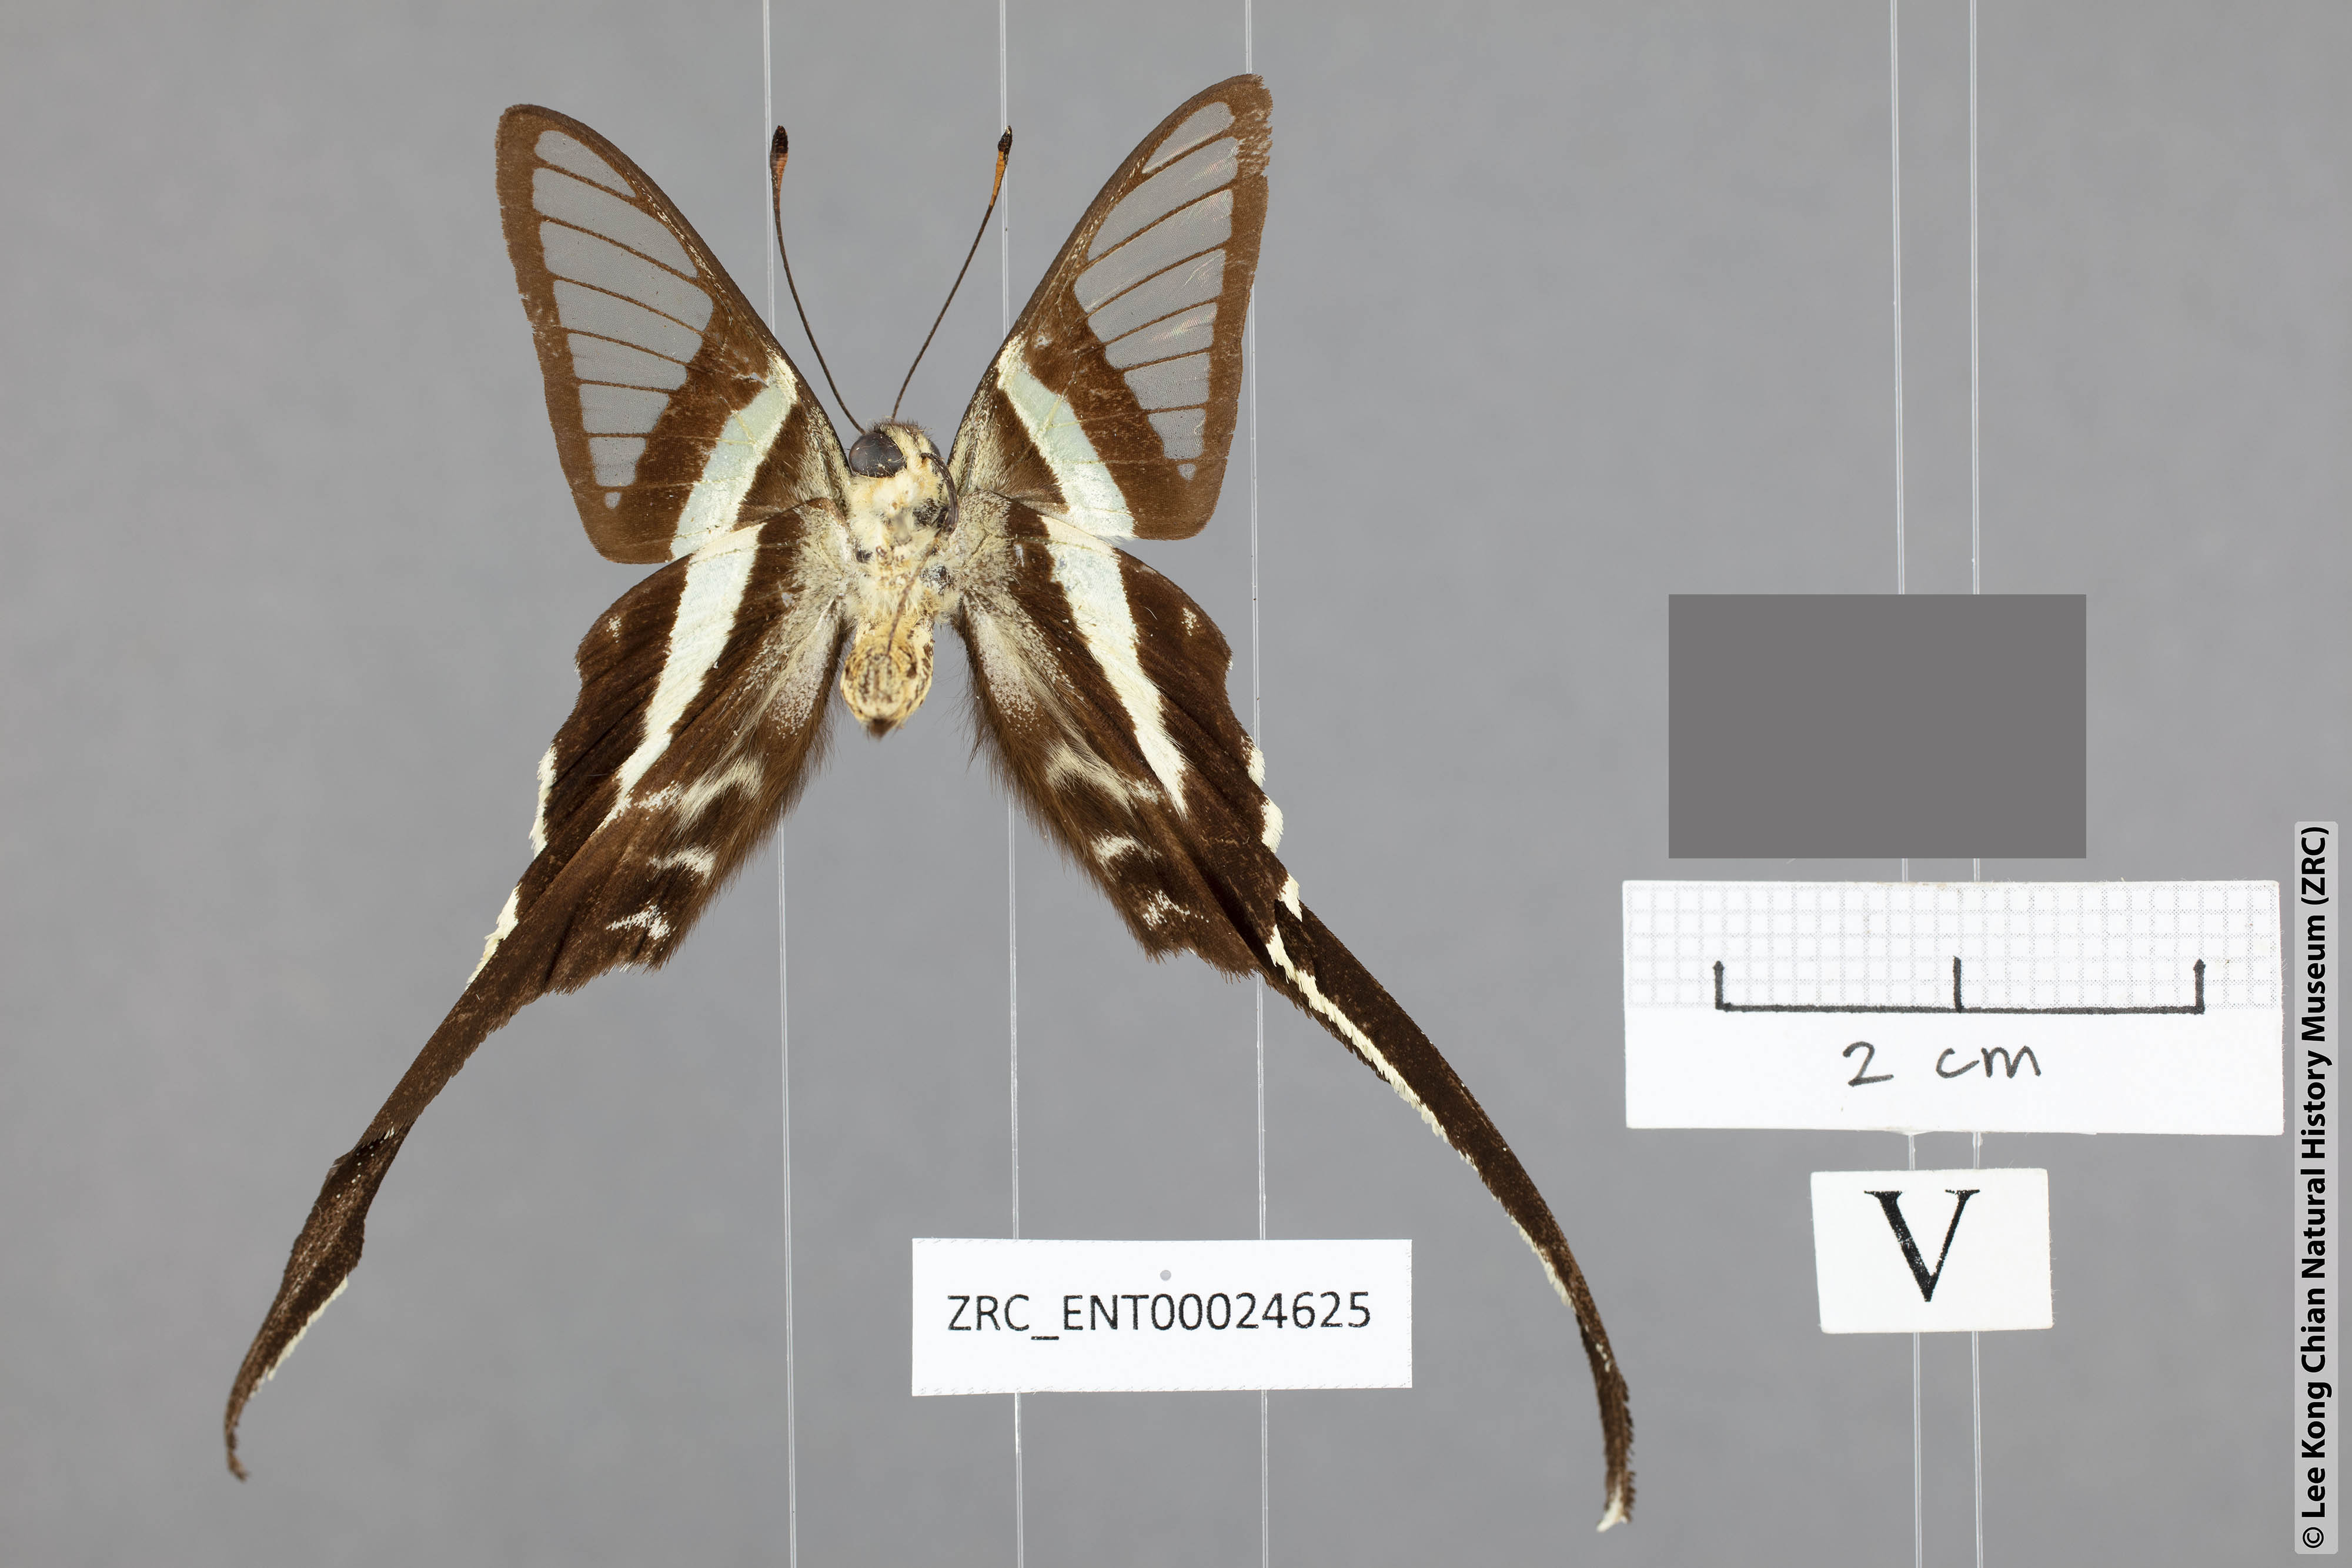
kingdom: Animalia
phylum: Arthropoda
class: Insecta
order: Lepidoptera
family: Papilionidae
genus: Lamproptera
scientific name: Lamproptera meges
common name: Green dragontail
